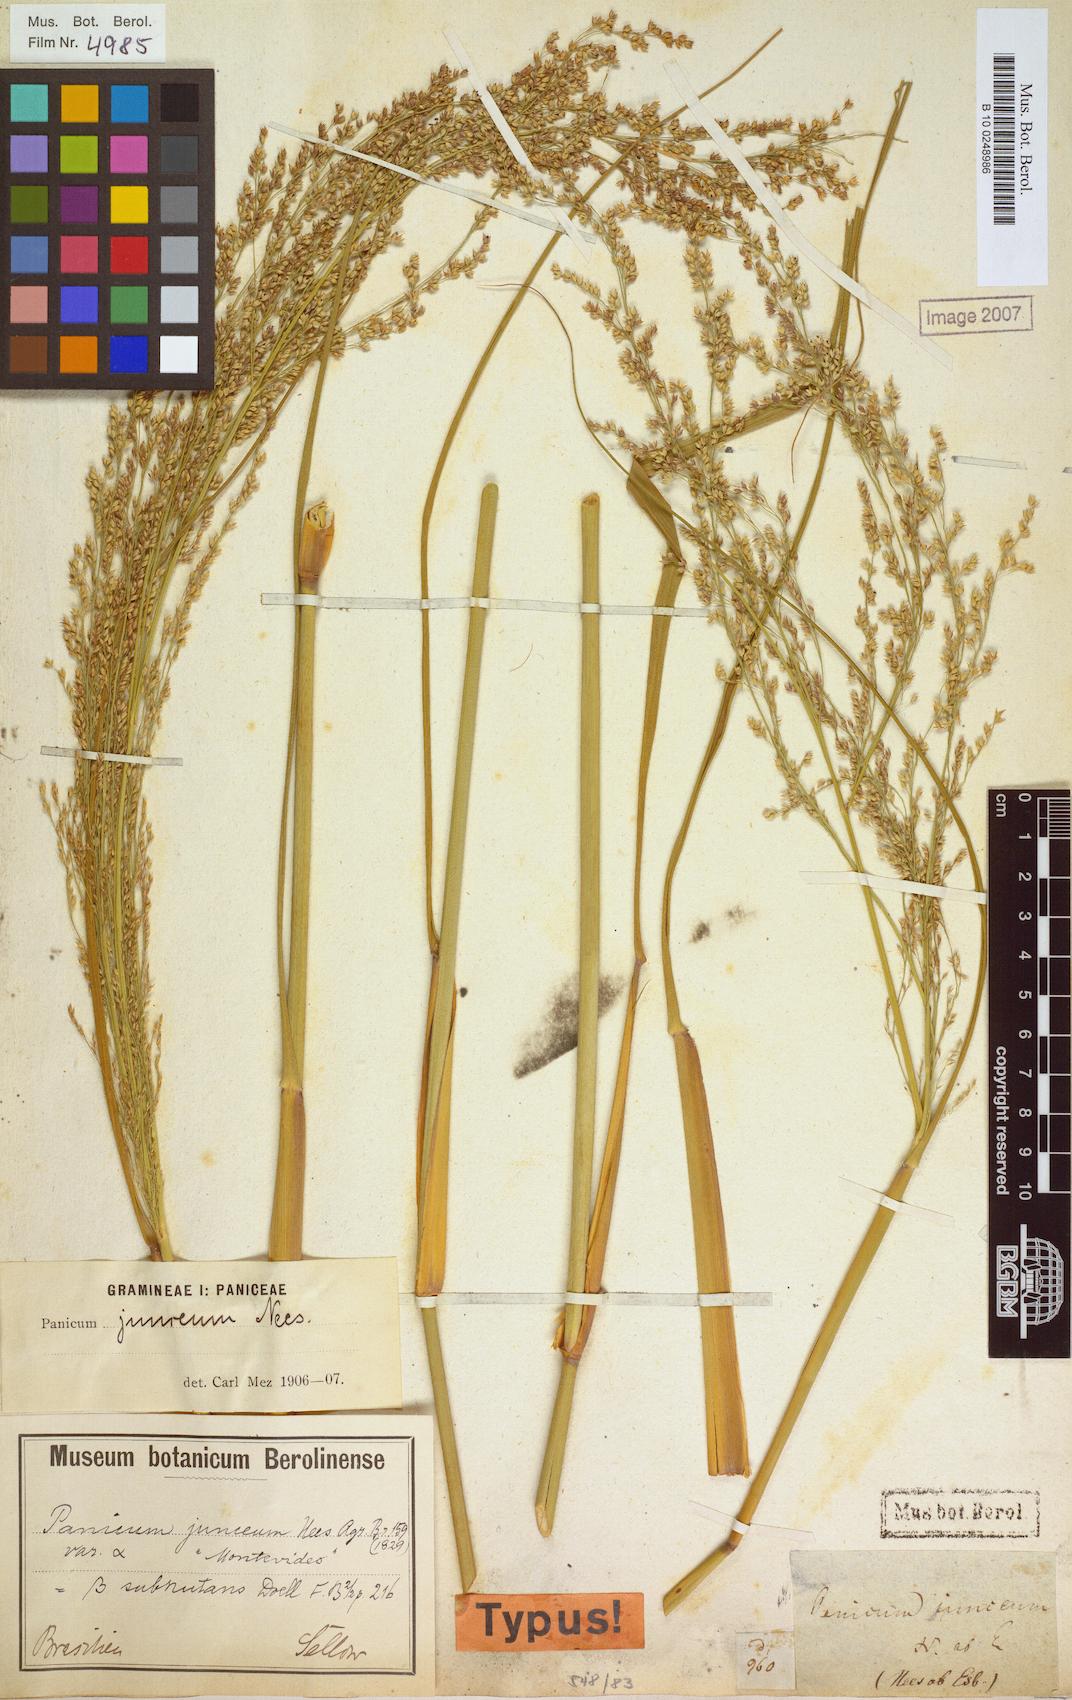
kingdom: Plantae
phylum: Tracheophyta
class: Liliopsida
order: Poales
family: Poaceae
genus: Panicum
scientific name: Panicum tricholaenoides
